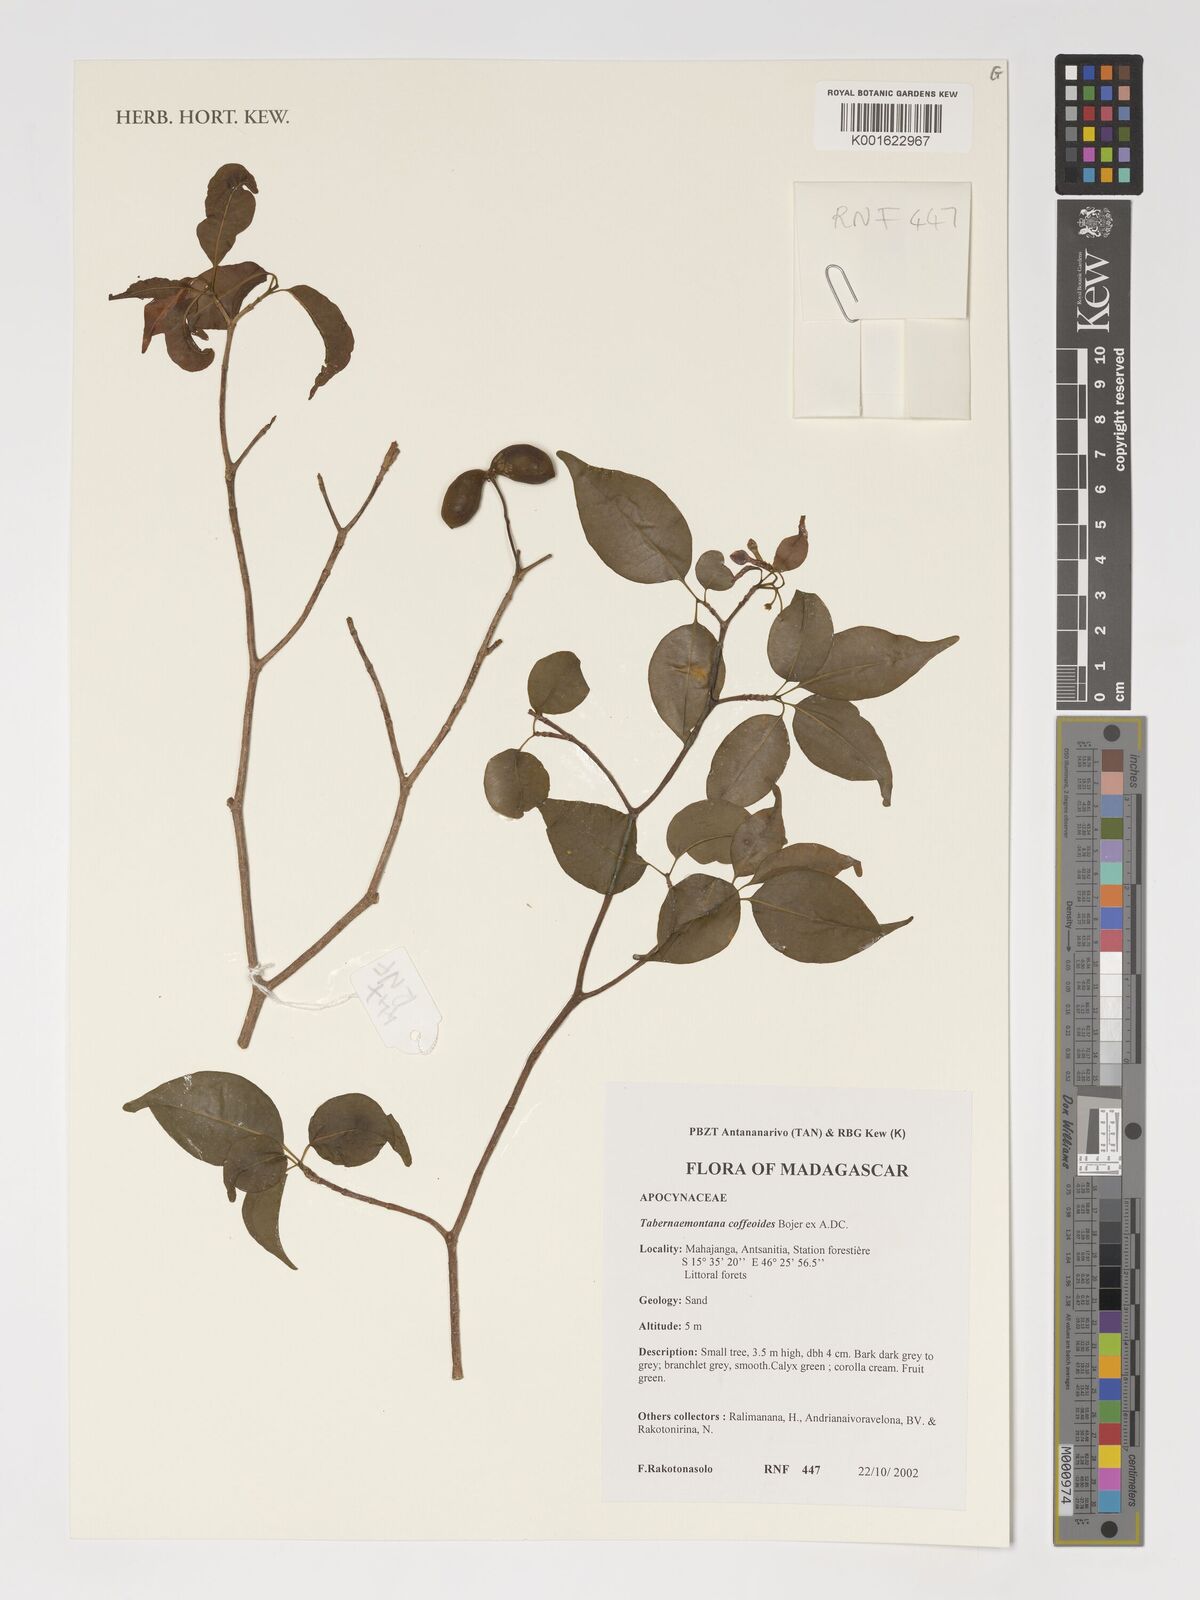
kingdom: Plantae
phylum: Tracheophyta
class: Magnoliopsida
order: Gentianales
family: Apocynaceae
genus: Tabernaemontana
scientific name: Tabernaemontana coffeoides
